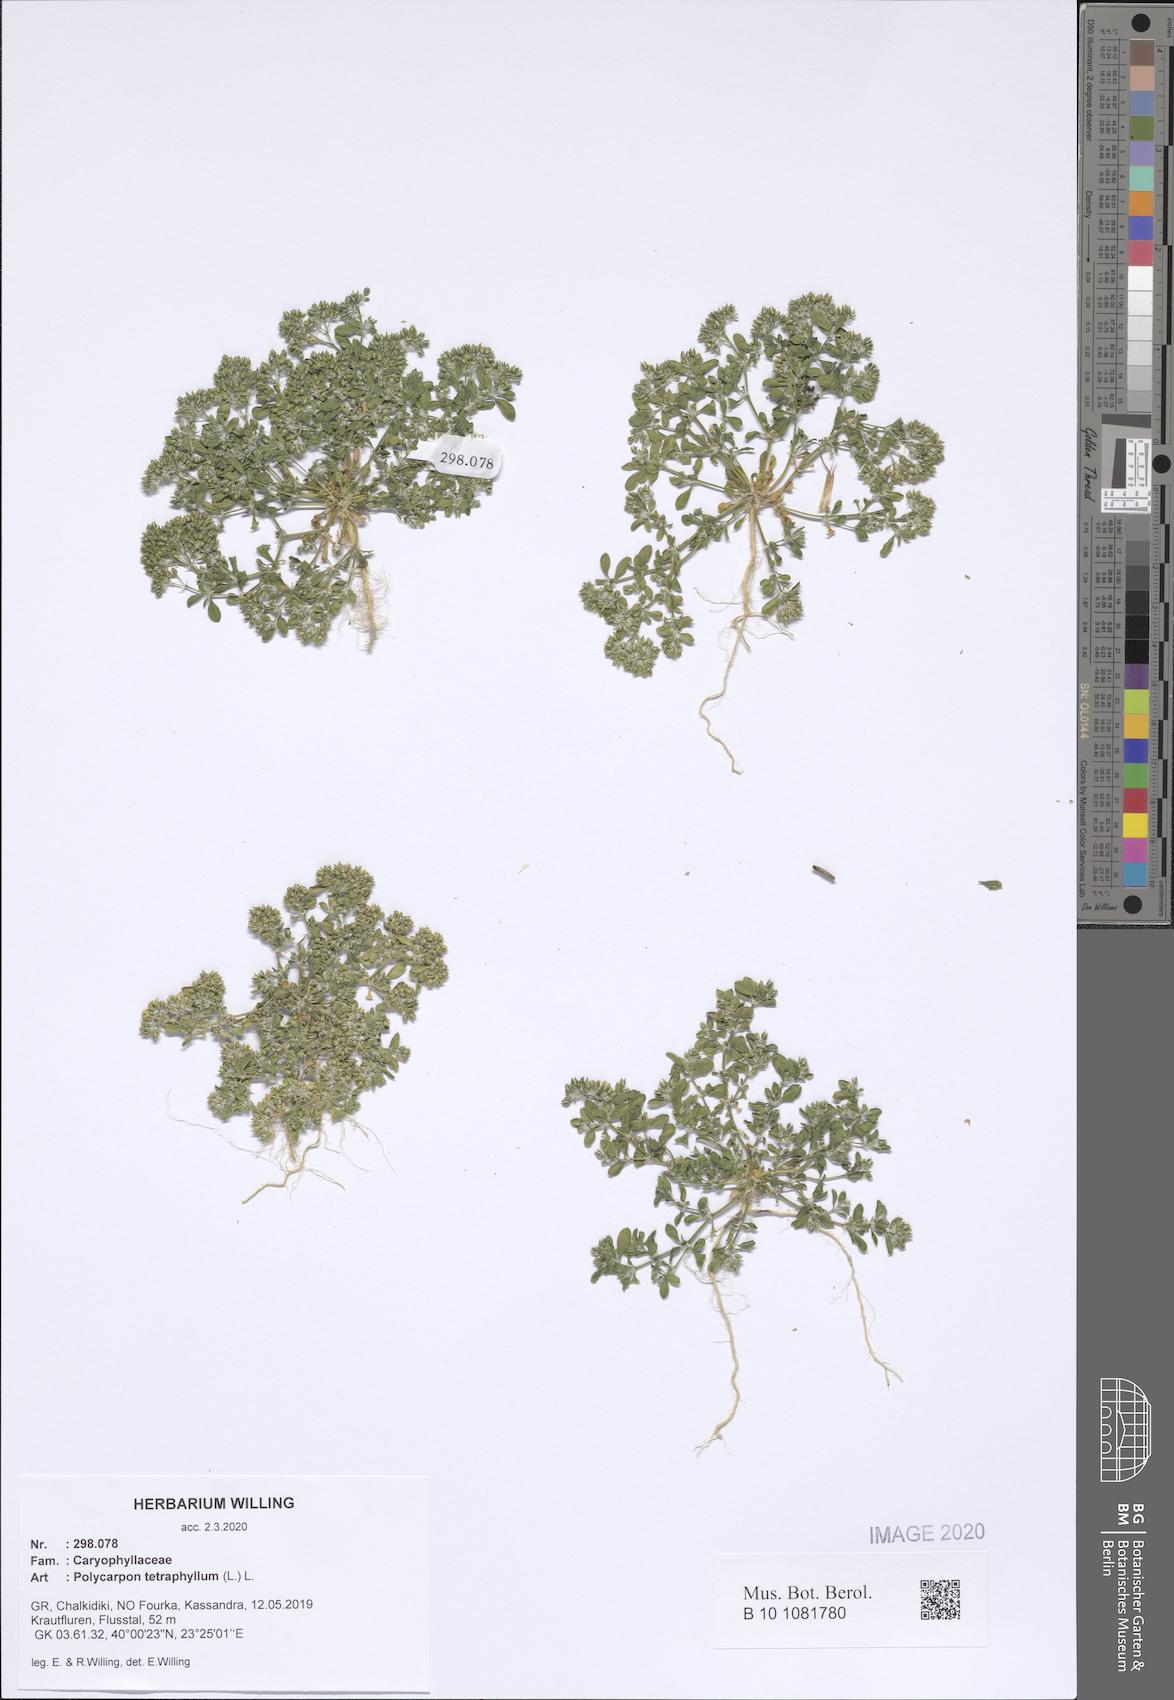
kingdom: Plantae
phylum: Tracheophyta
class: Magnoliopsida
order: Caryophyllales
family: Caryophyllaceae
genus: Polycarpon
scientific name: Polycarpon tetraphyllum
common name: Four-leaved all-seed
